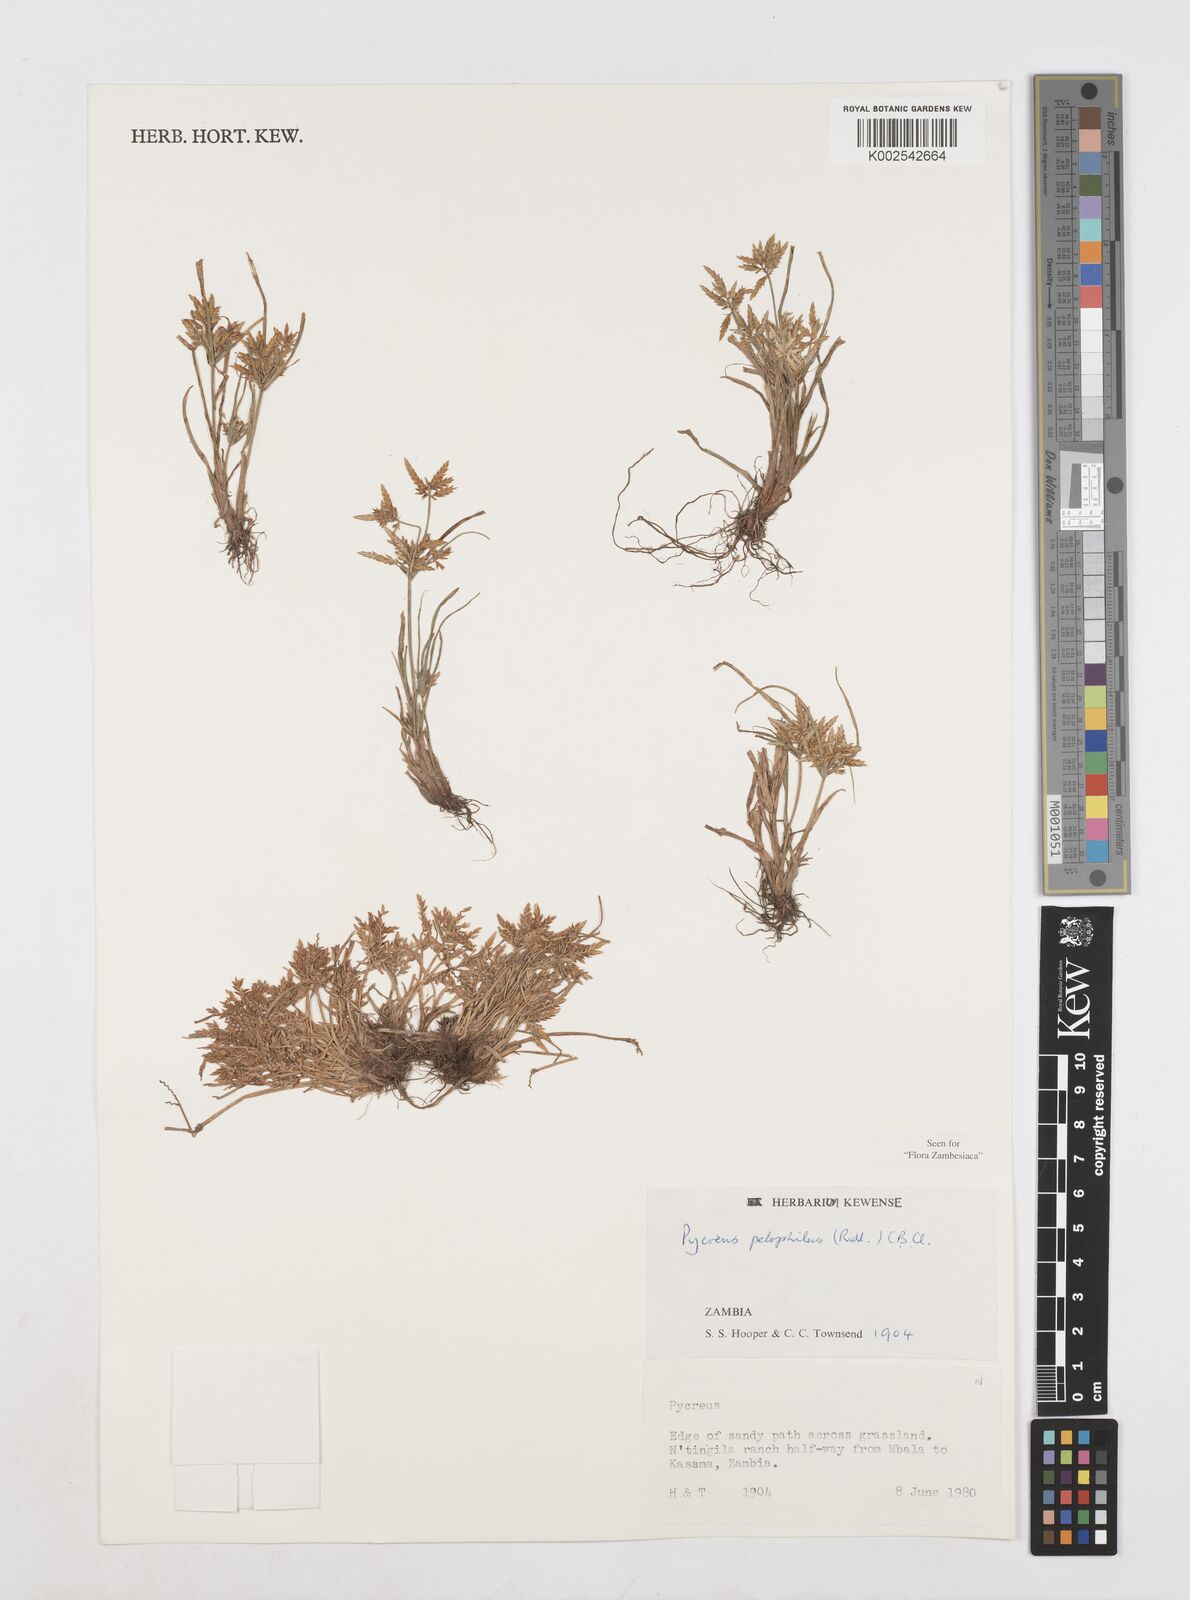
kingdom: Plantae
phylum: Tracheophyta
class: Liliopsida
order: Poales
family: Cyperaceae
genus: Cyperus
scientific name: Cyperus pelophilus
